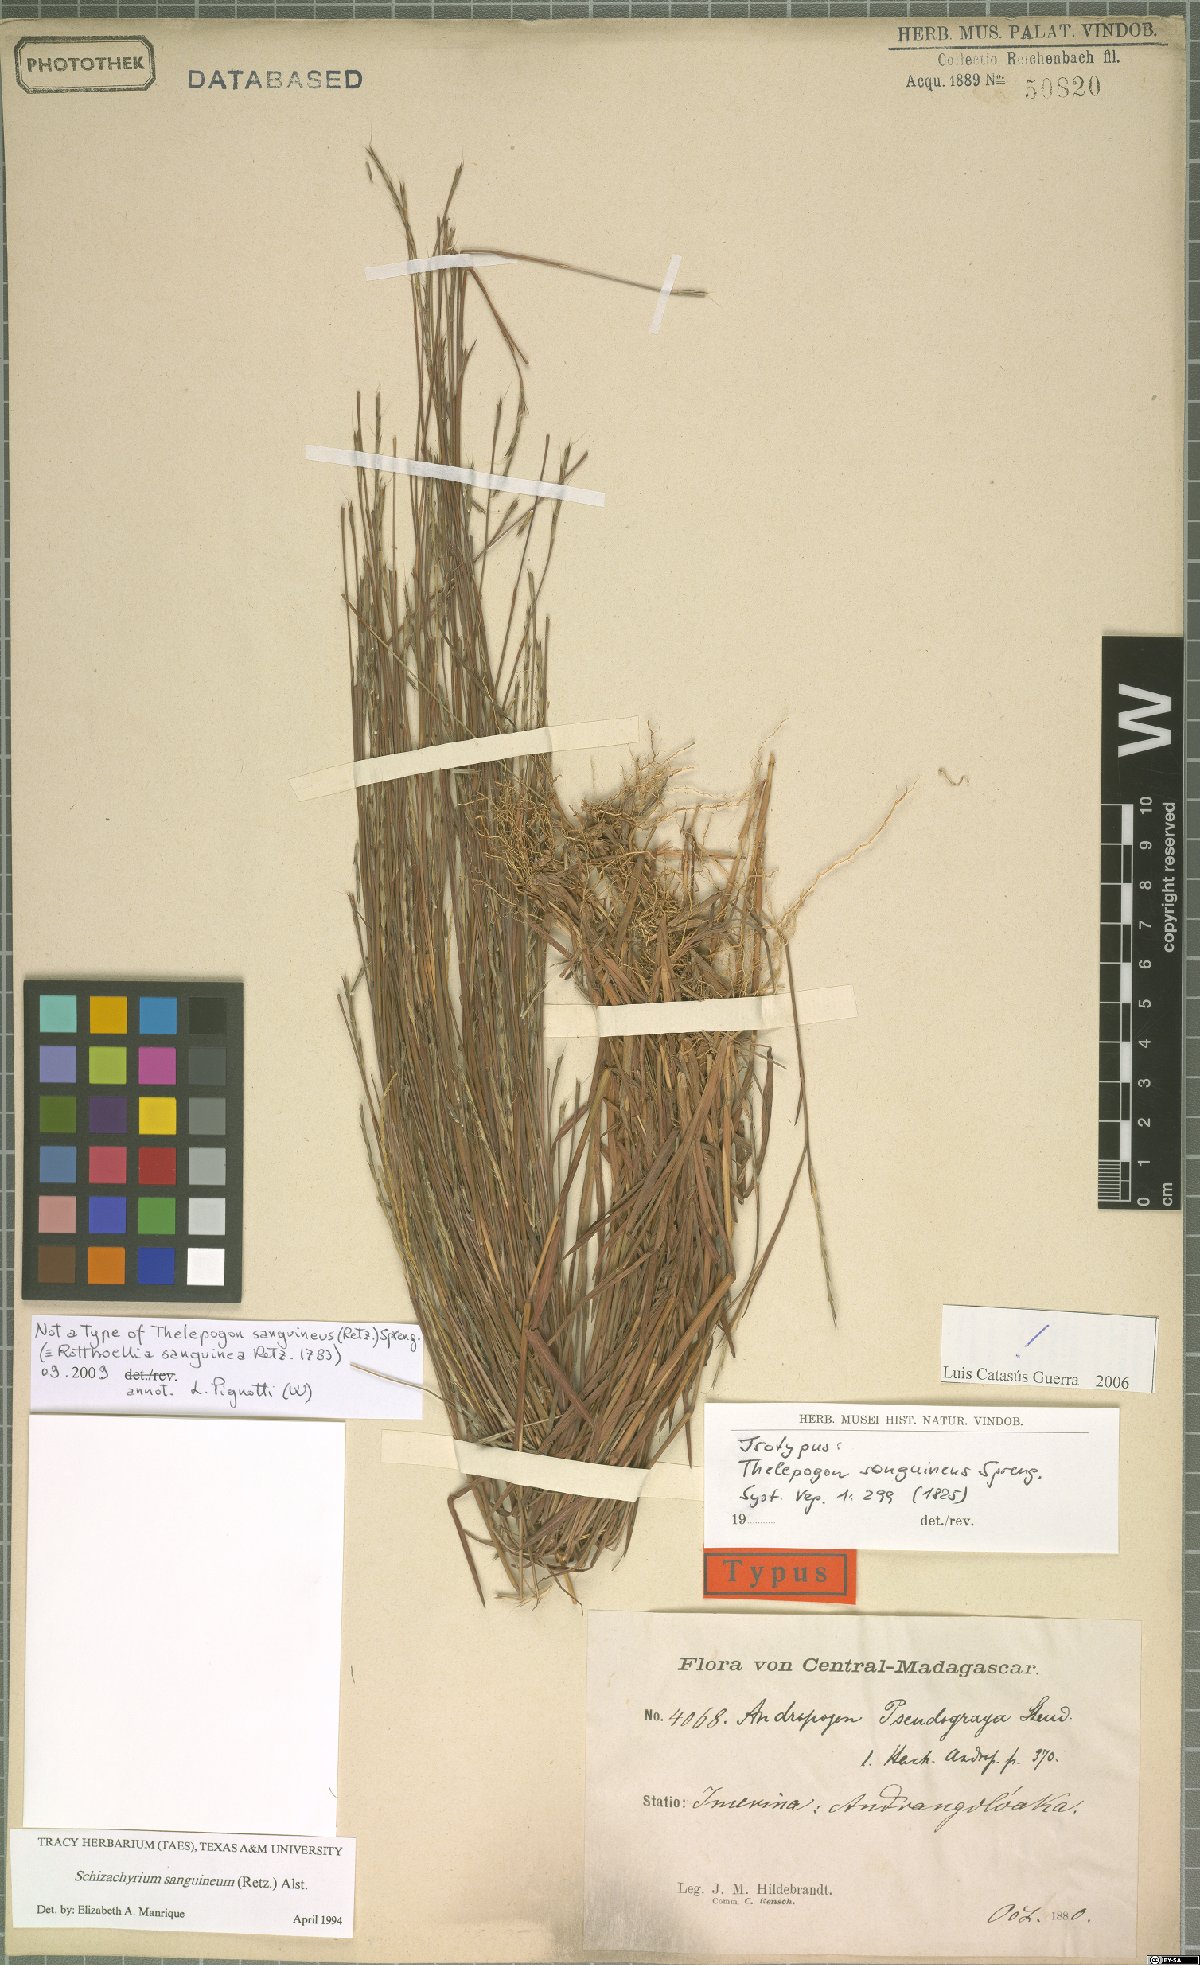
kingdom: Plantae
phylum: Tracheophyta
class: Liliopsida
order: Poales
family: Poaceae
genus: Schizachyrium
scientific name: Schizachyrium sanguineum
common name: Crimson bluestem
